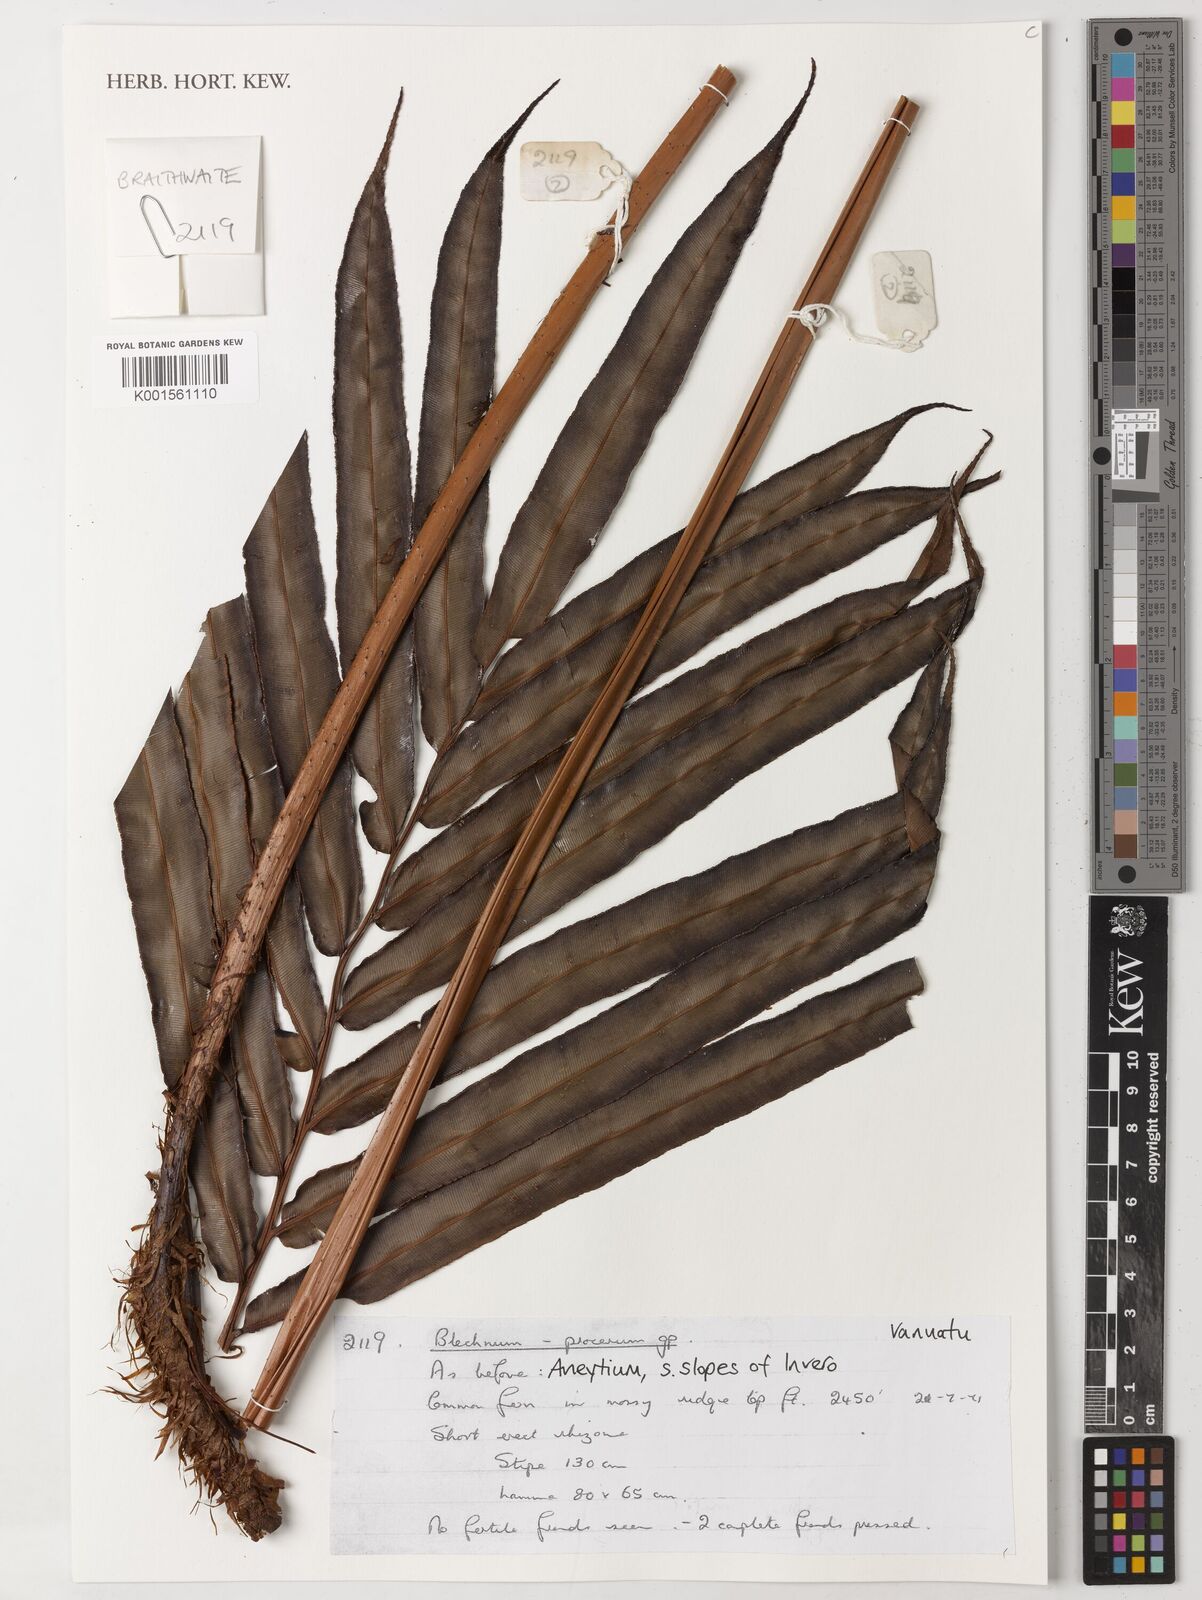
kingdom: Plantae
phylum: Tracheophyta
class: Polypodiopsida
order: Polypodiales
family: Blechnaceae
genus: Parablechnum
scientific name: Parablechnum procerum
